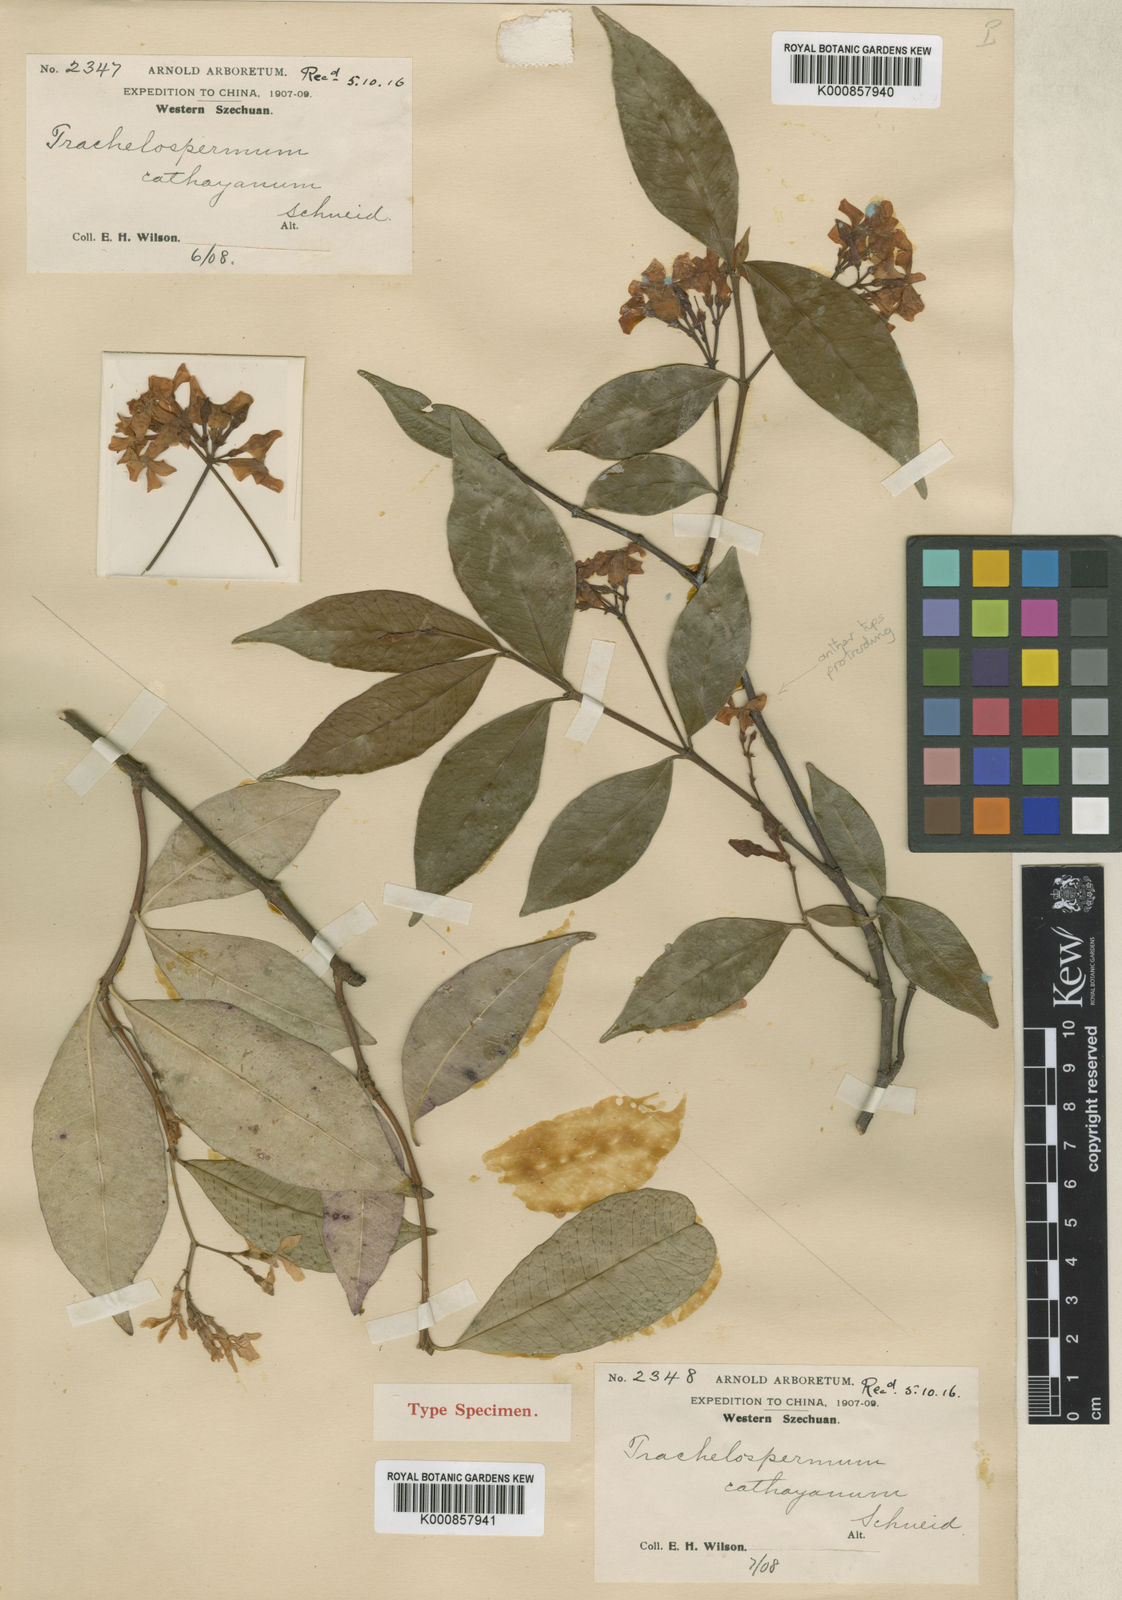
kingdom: Plantae
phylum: Tracheophyta
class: Magnoliopsida
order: Gentianales
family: Apocynaceae
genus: Trachelospermum
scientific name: Trachelospermum bodinieri
